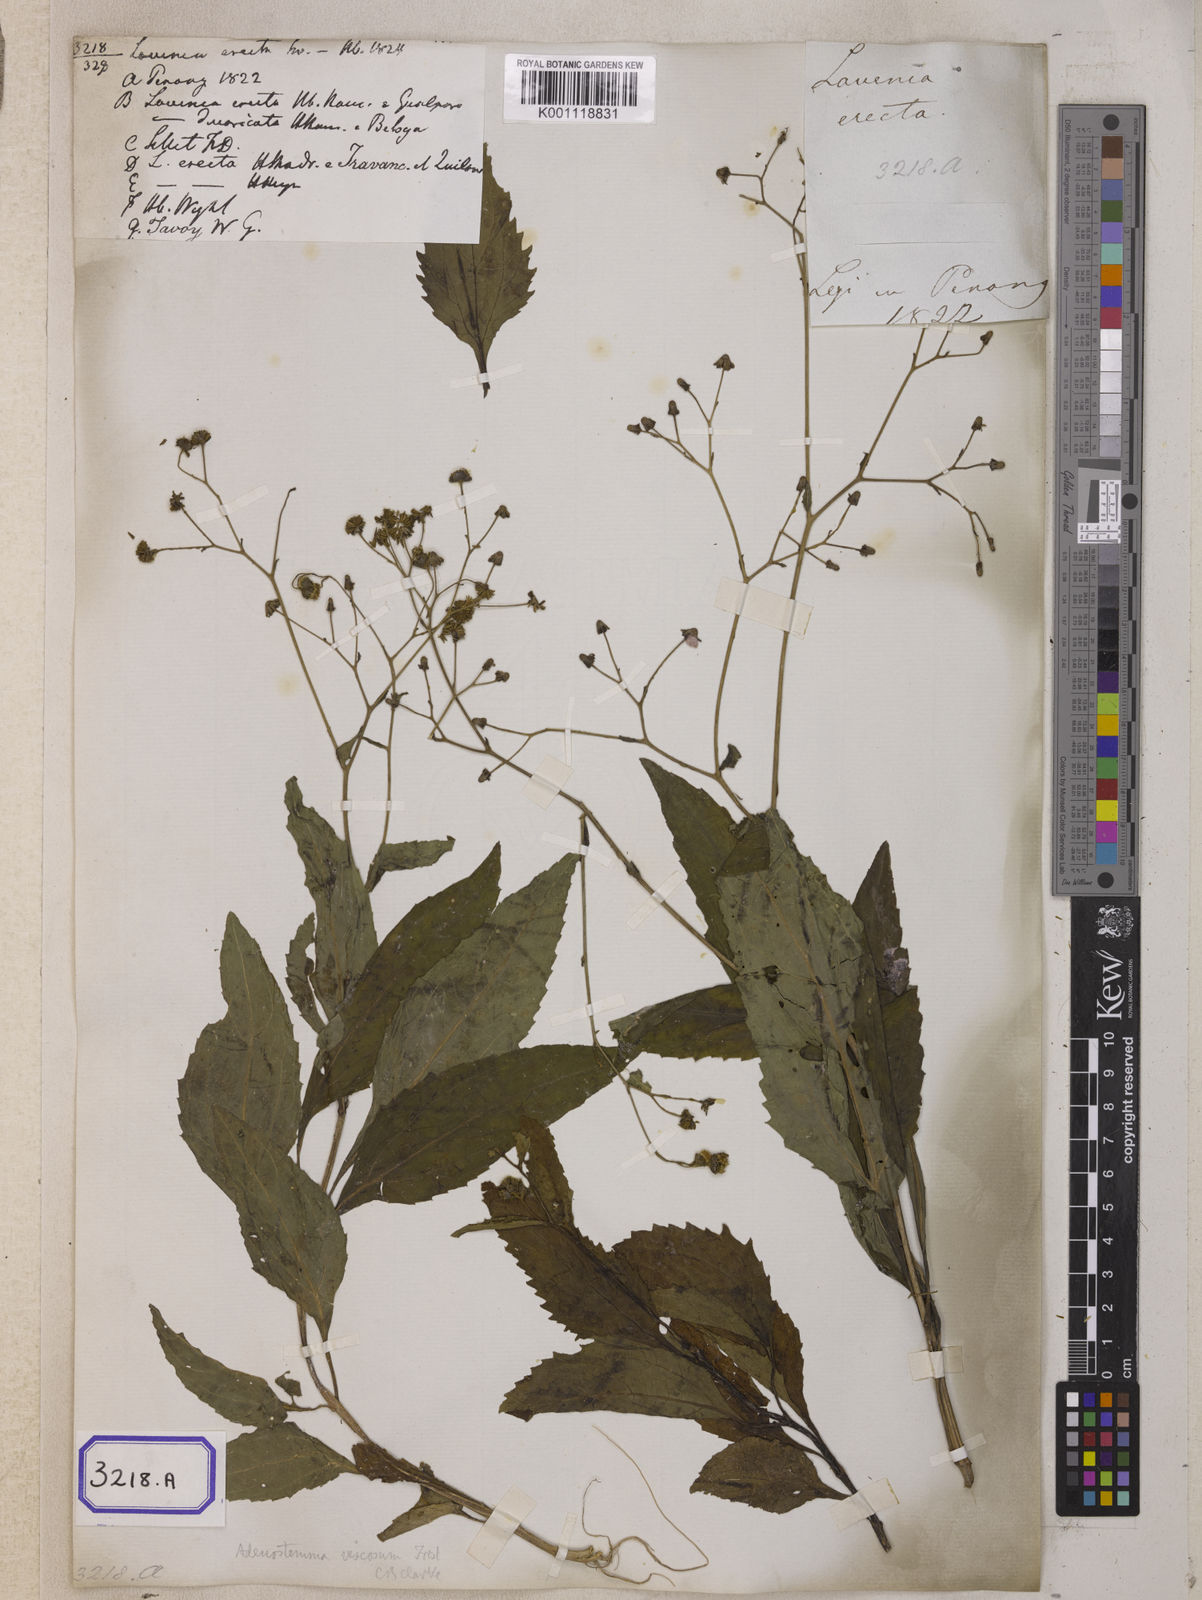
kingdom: Plantae
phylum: Tracheophyta
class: Magnoliopsida
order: Asterales
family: Asteraceae
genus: Adenostemma
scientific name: Adenostemma viscosum
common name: Dungweed
